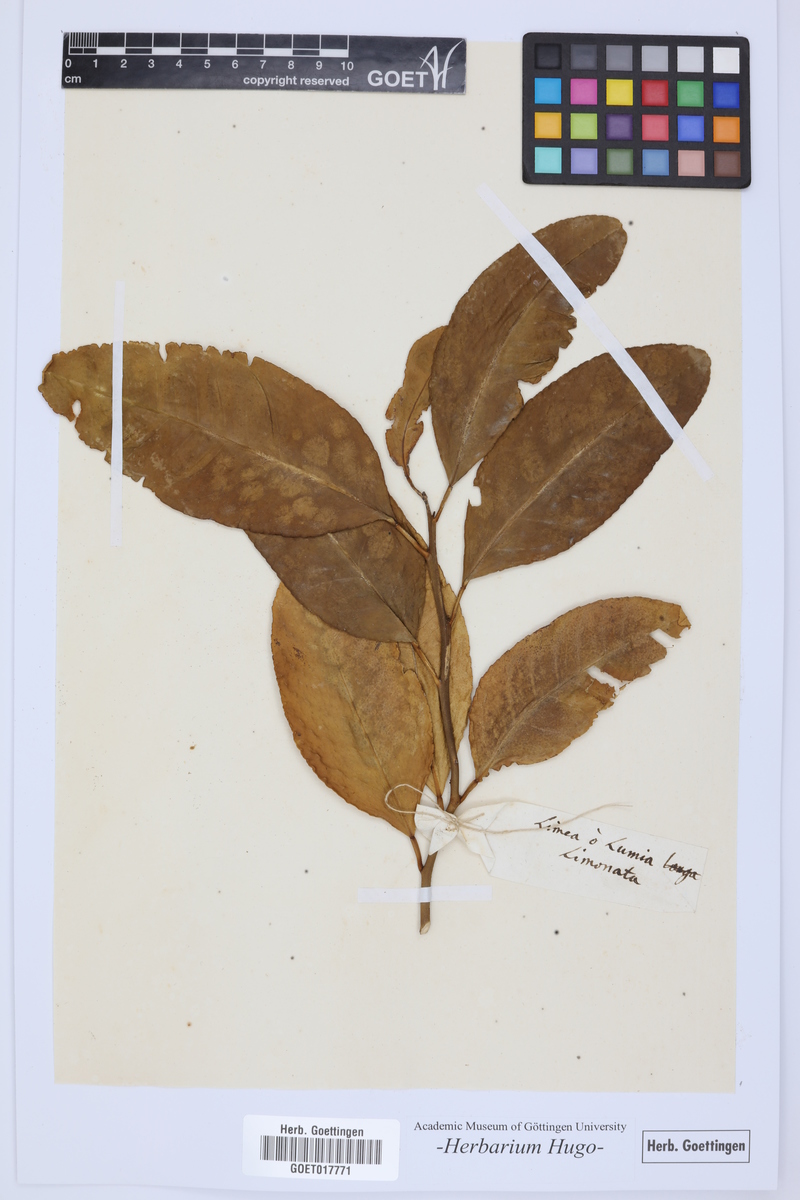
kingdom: Plantae
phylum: Tracheophyta
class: Magnoliopsida
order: Sapindales
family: Rutaceae
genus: Citrus
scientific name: Citrus
